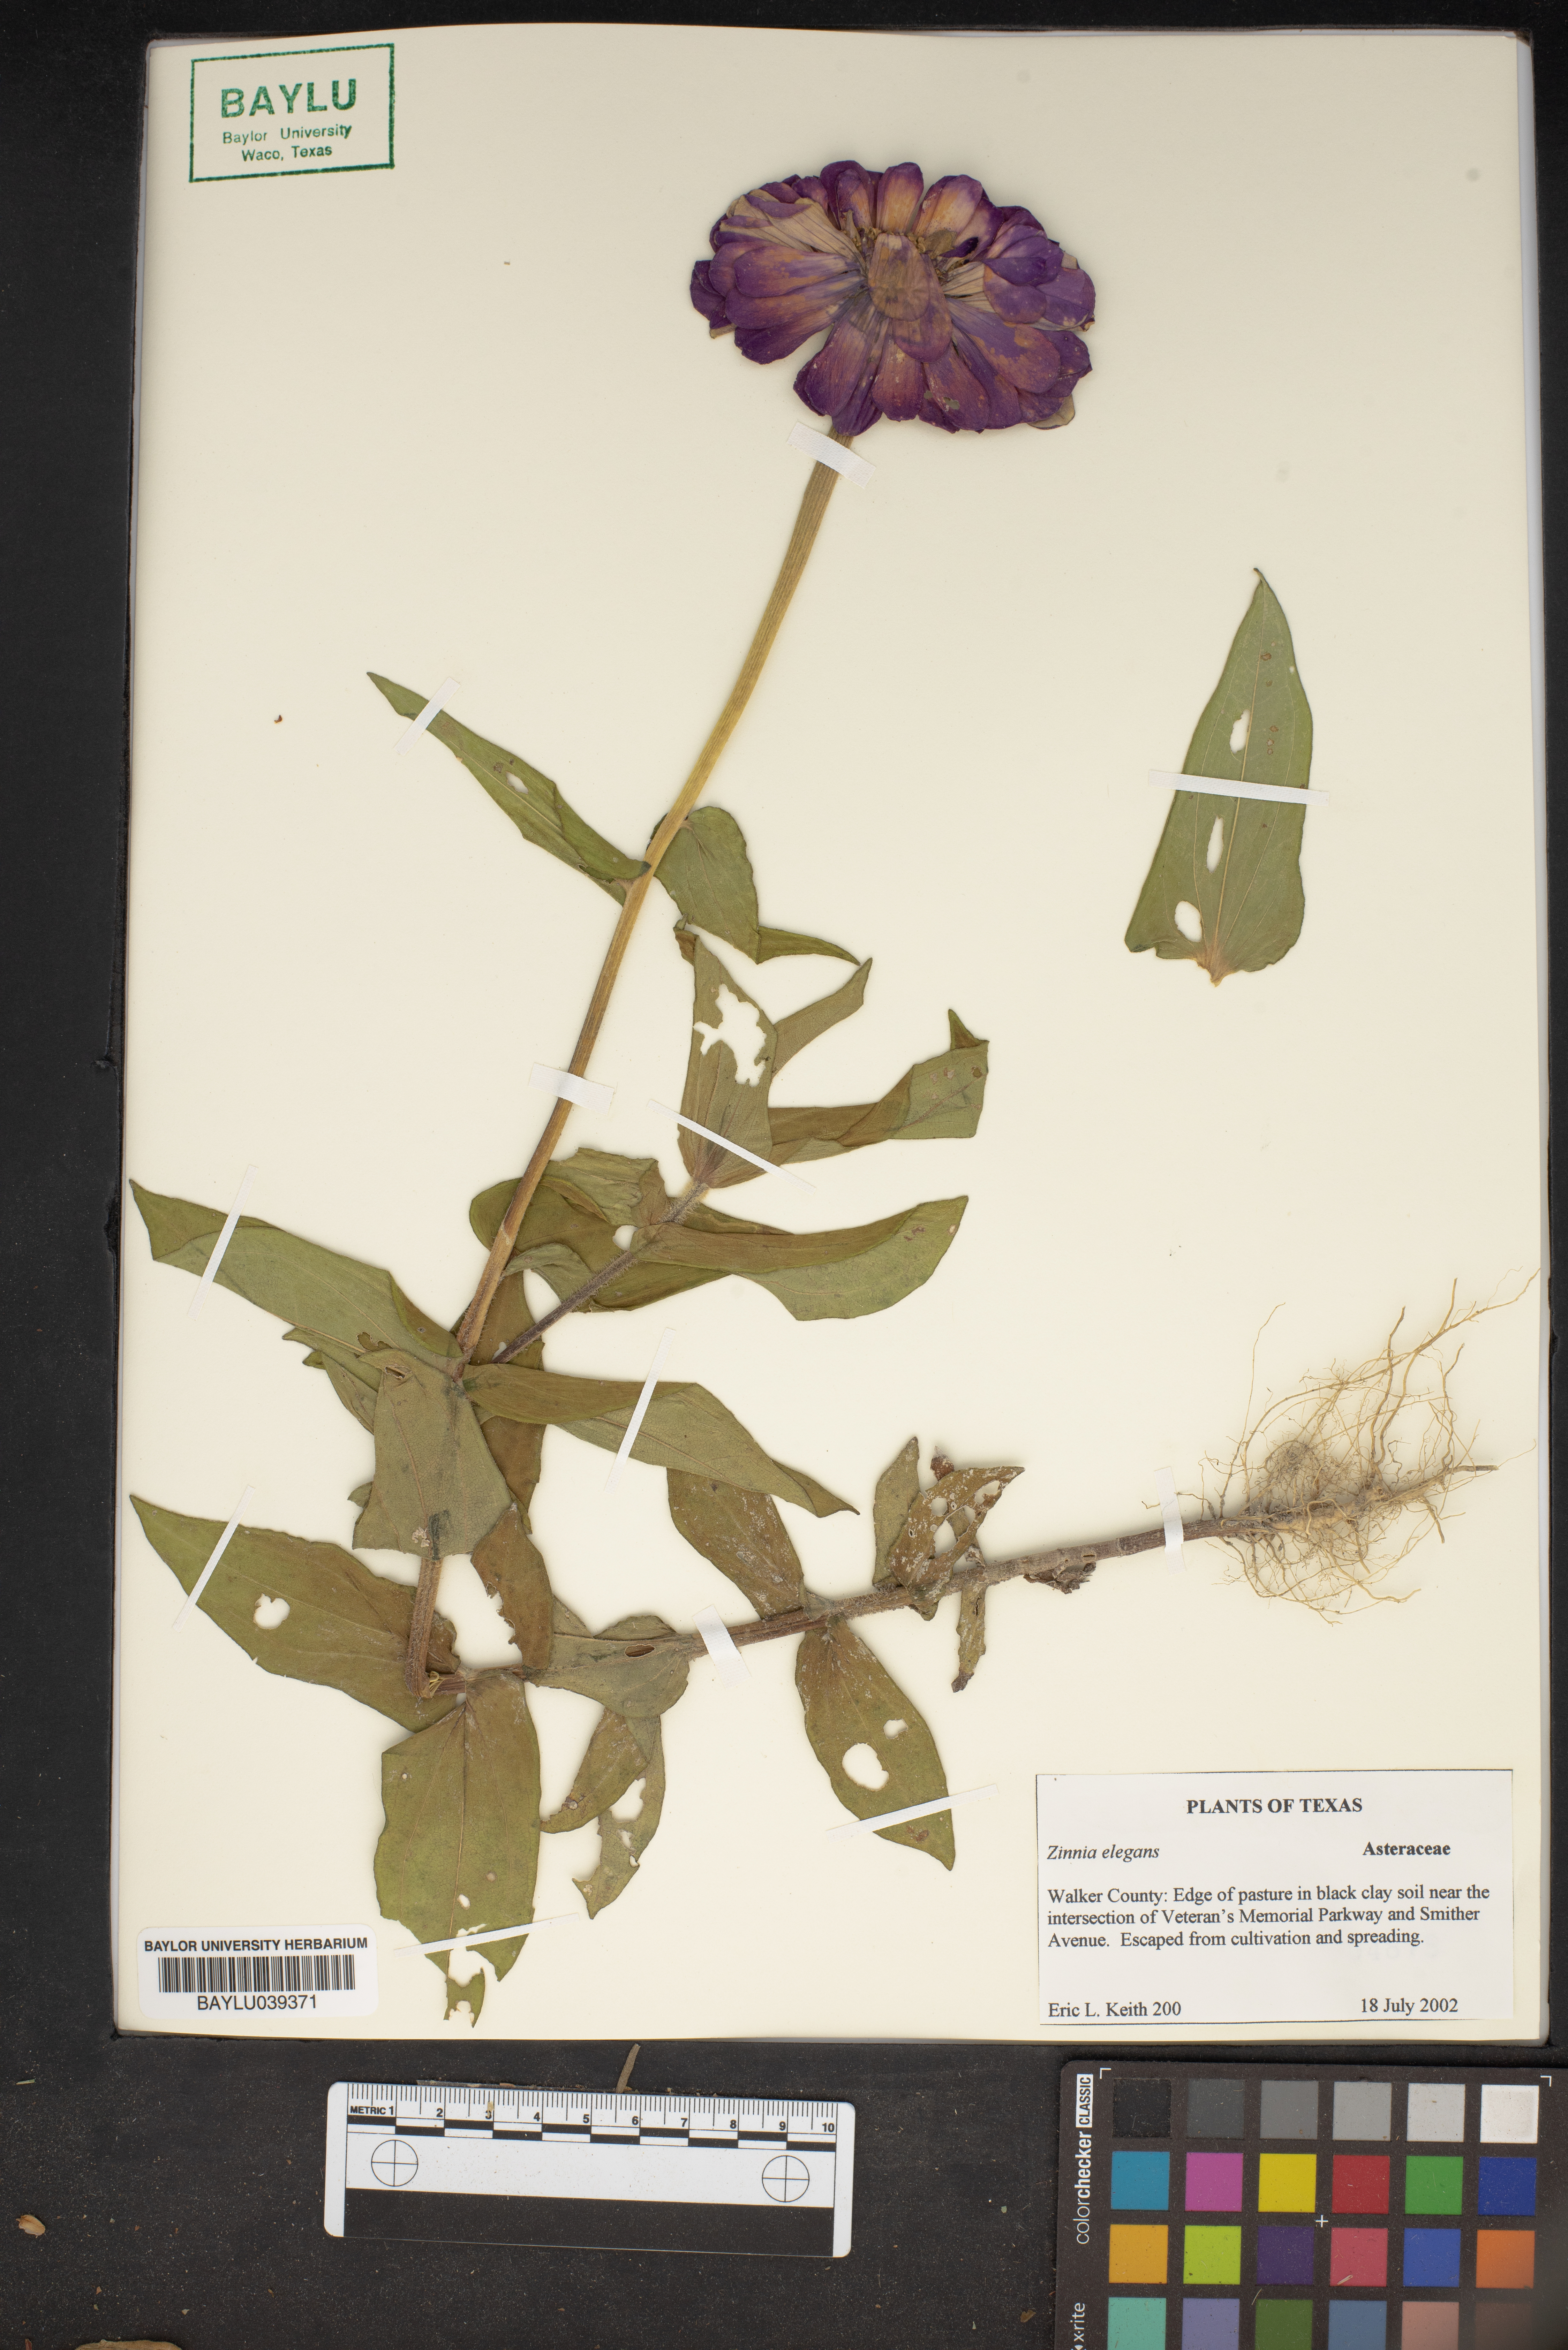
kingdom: Plantae
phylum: Tracheophyta
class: Magnoliopsida
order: Asterales
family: Asteraceae
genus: Zinnia
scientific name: Zinnia elegans
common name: Youth-and-age
